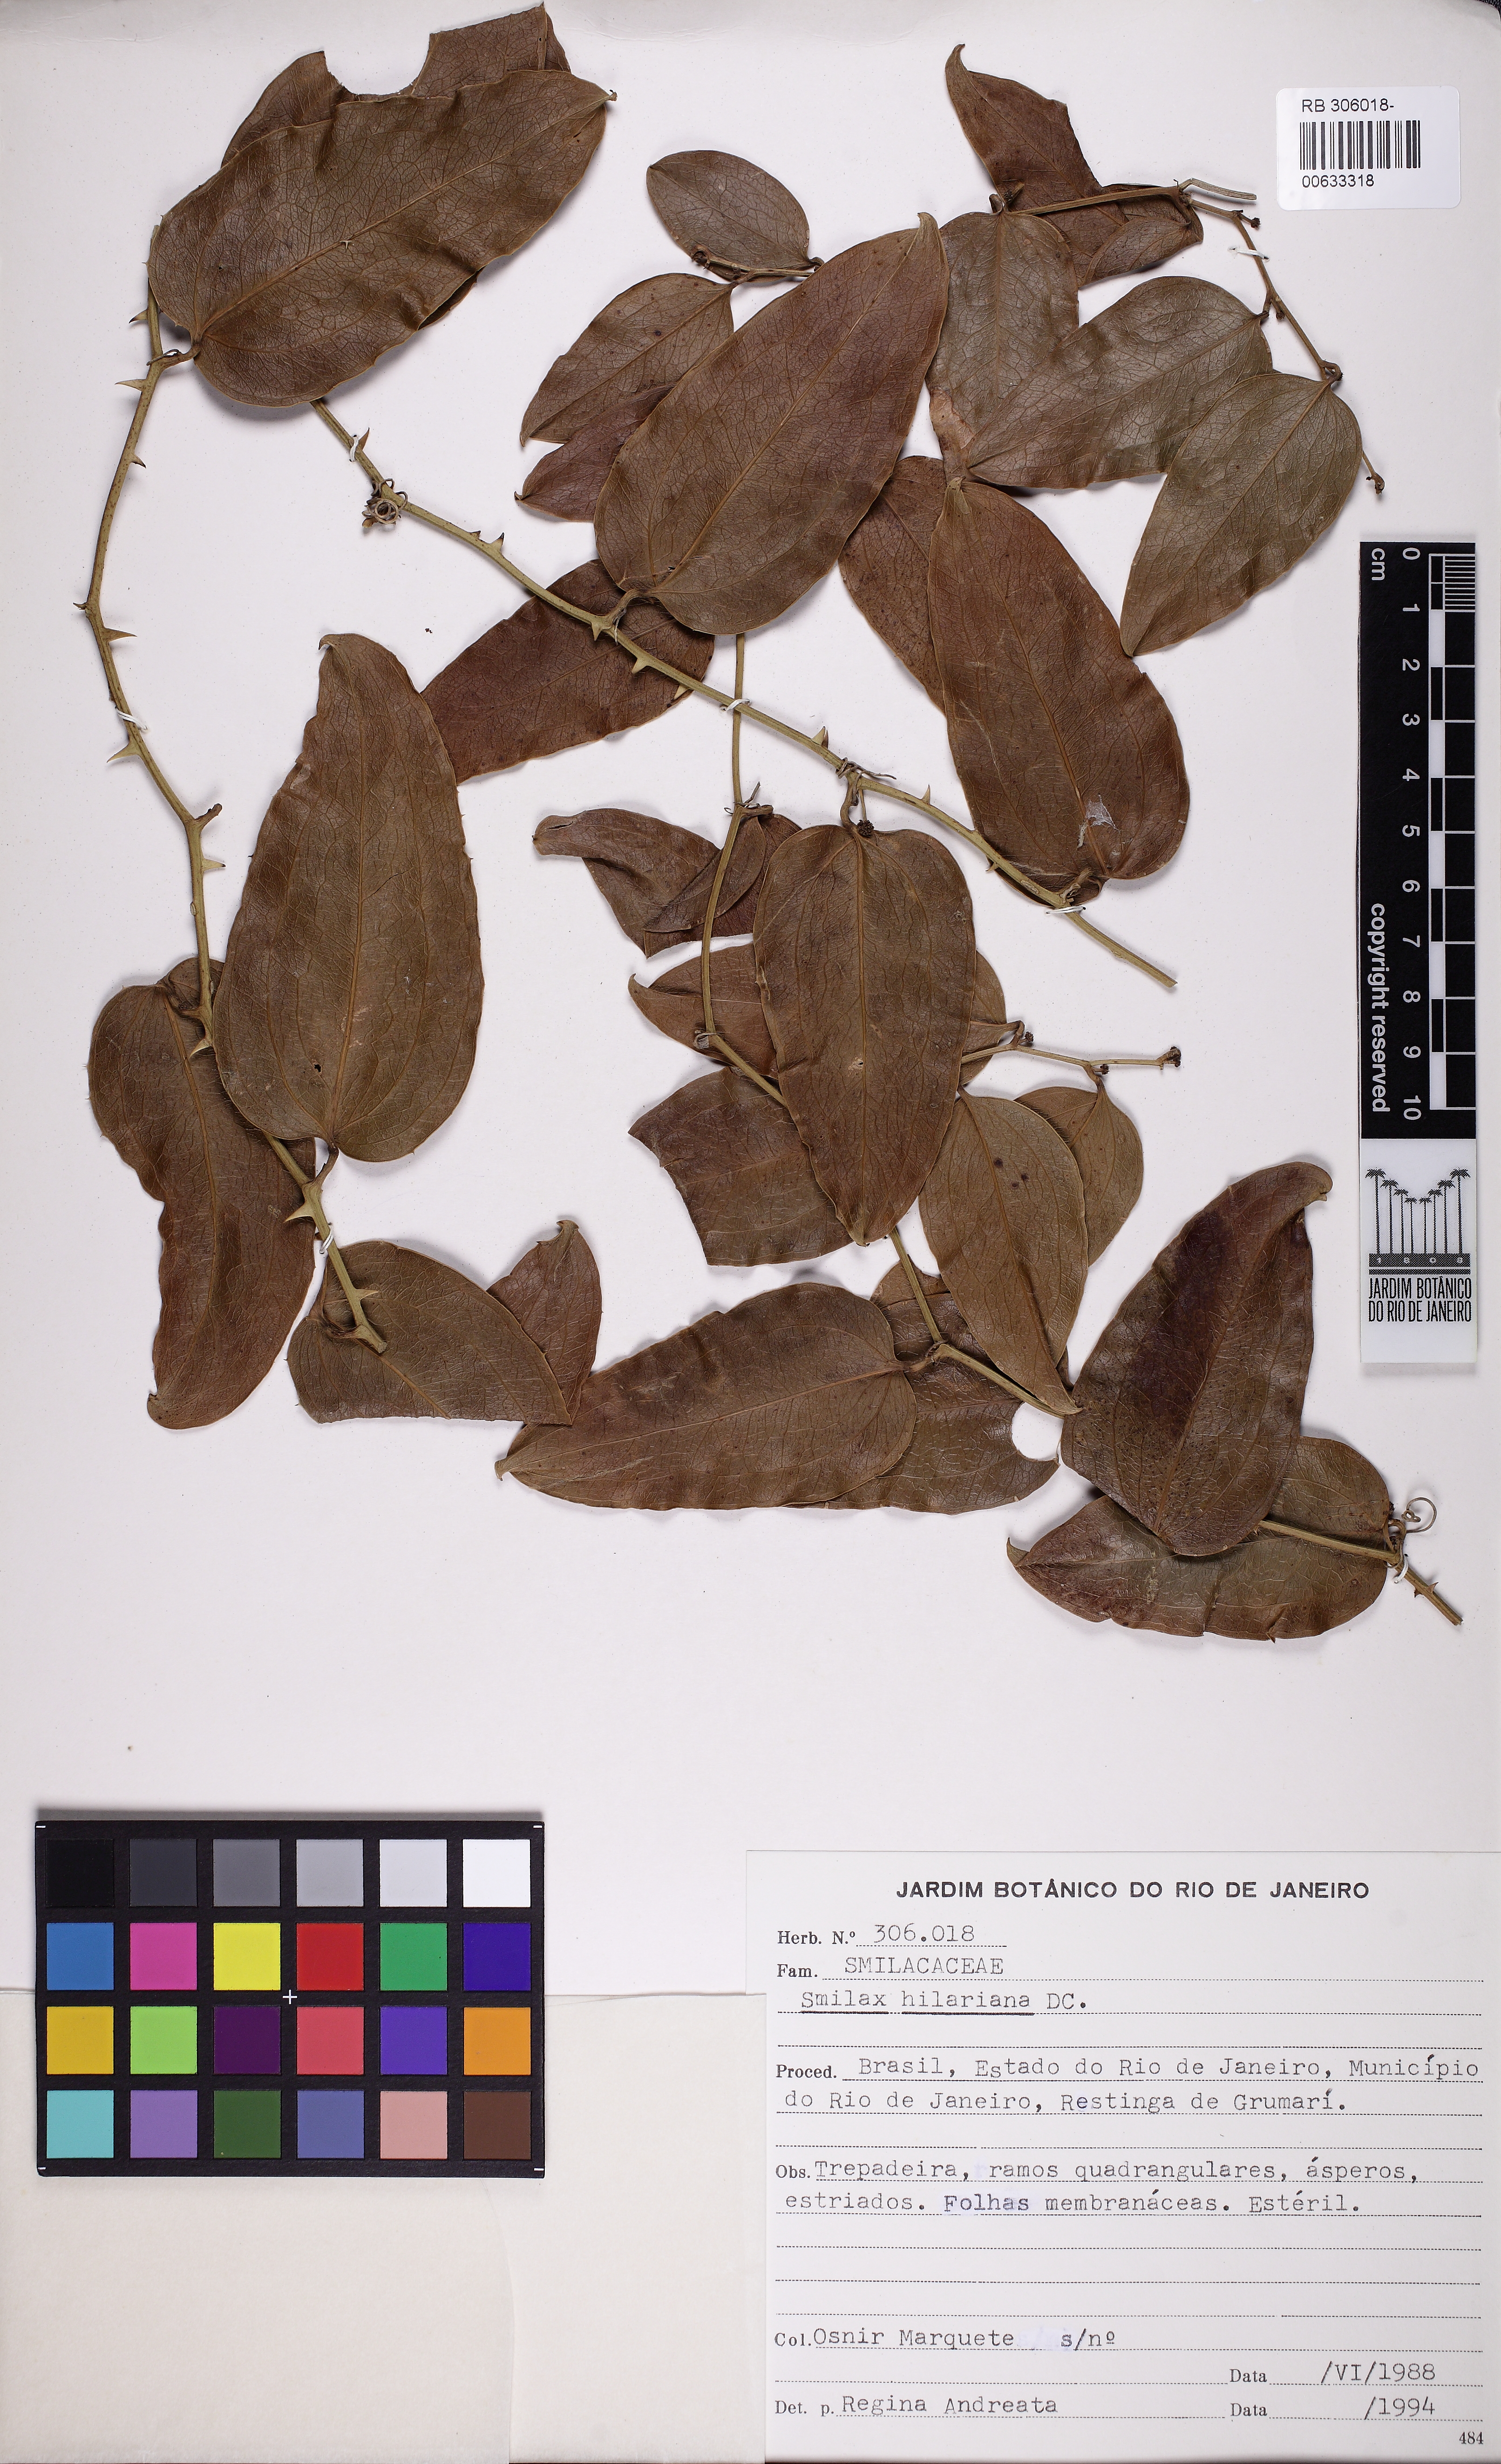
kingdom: Plantae
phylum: Tracheophyta
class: Liliopsida
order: Liliales
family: Smilacaceae
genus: Smilax
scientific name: Smilax hilariana
